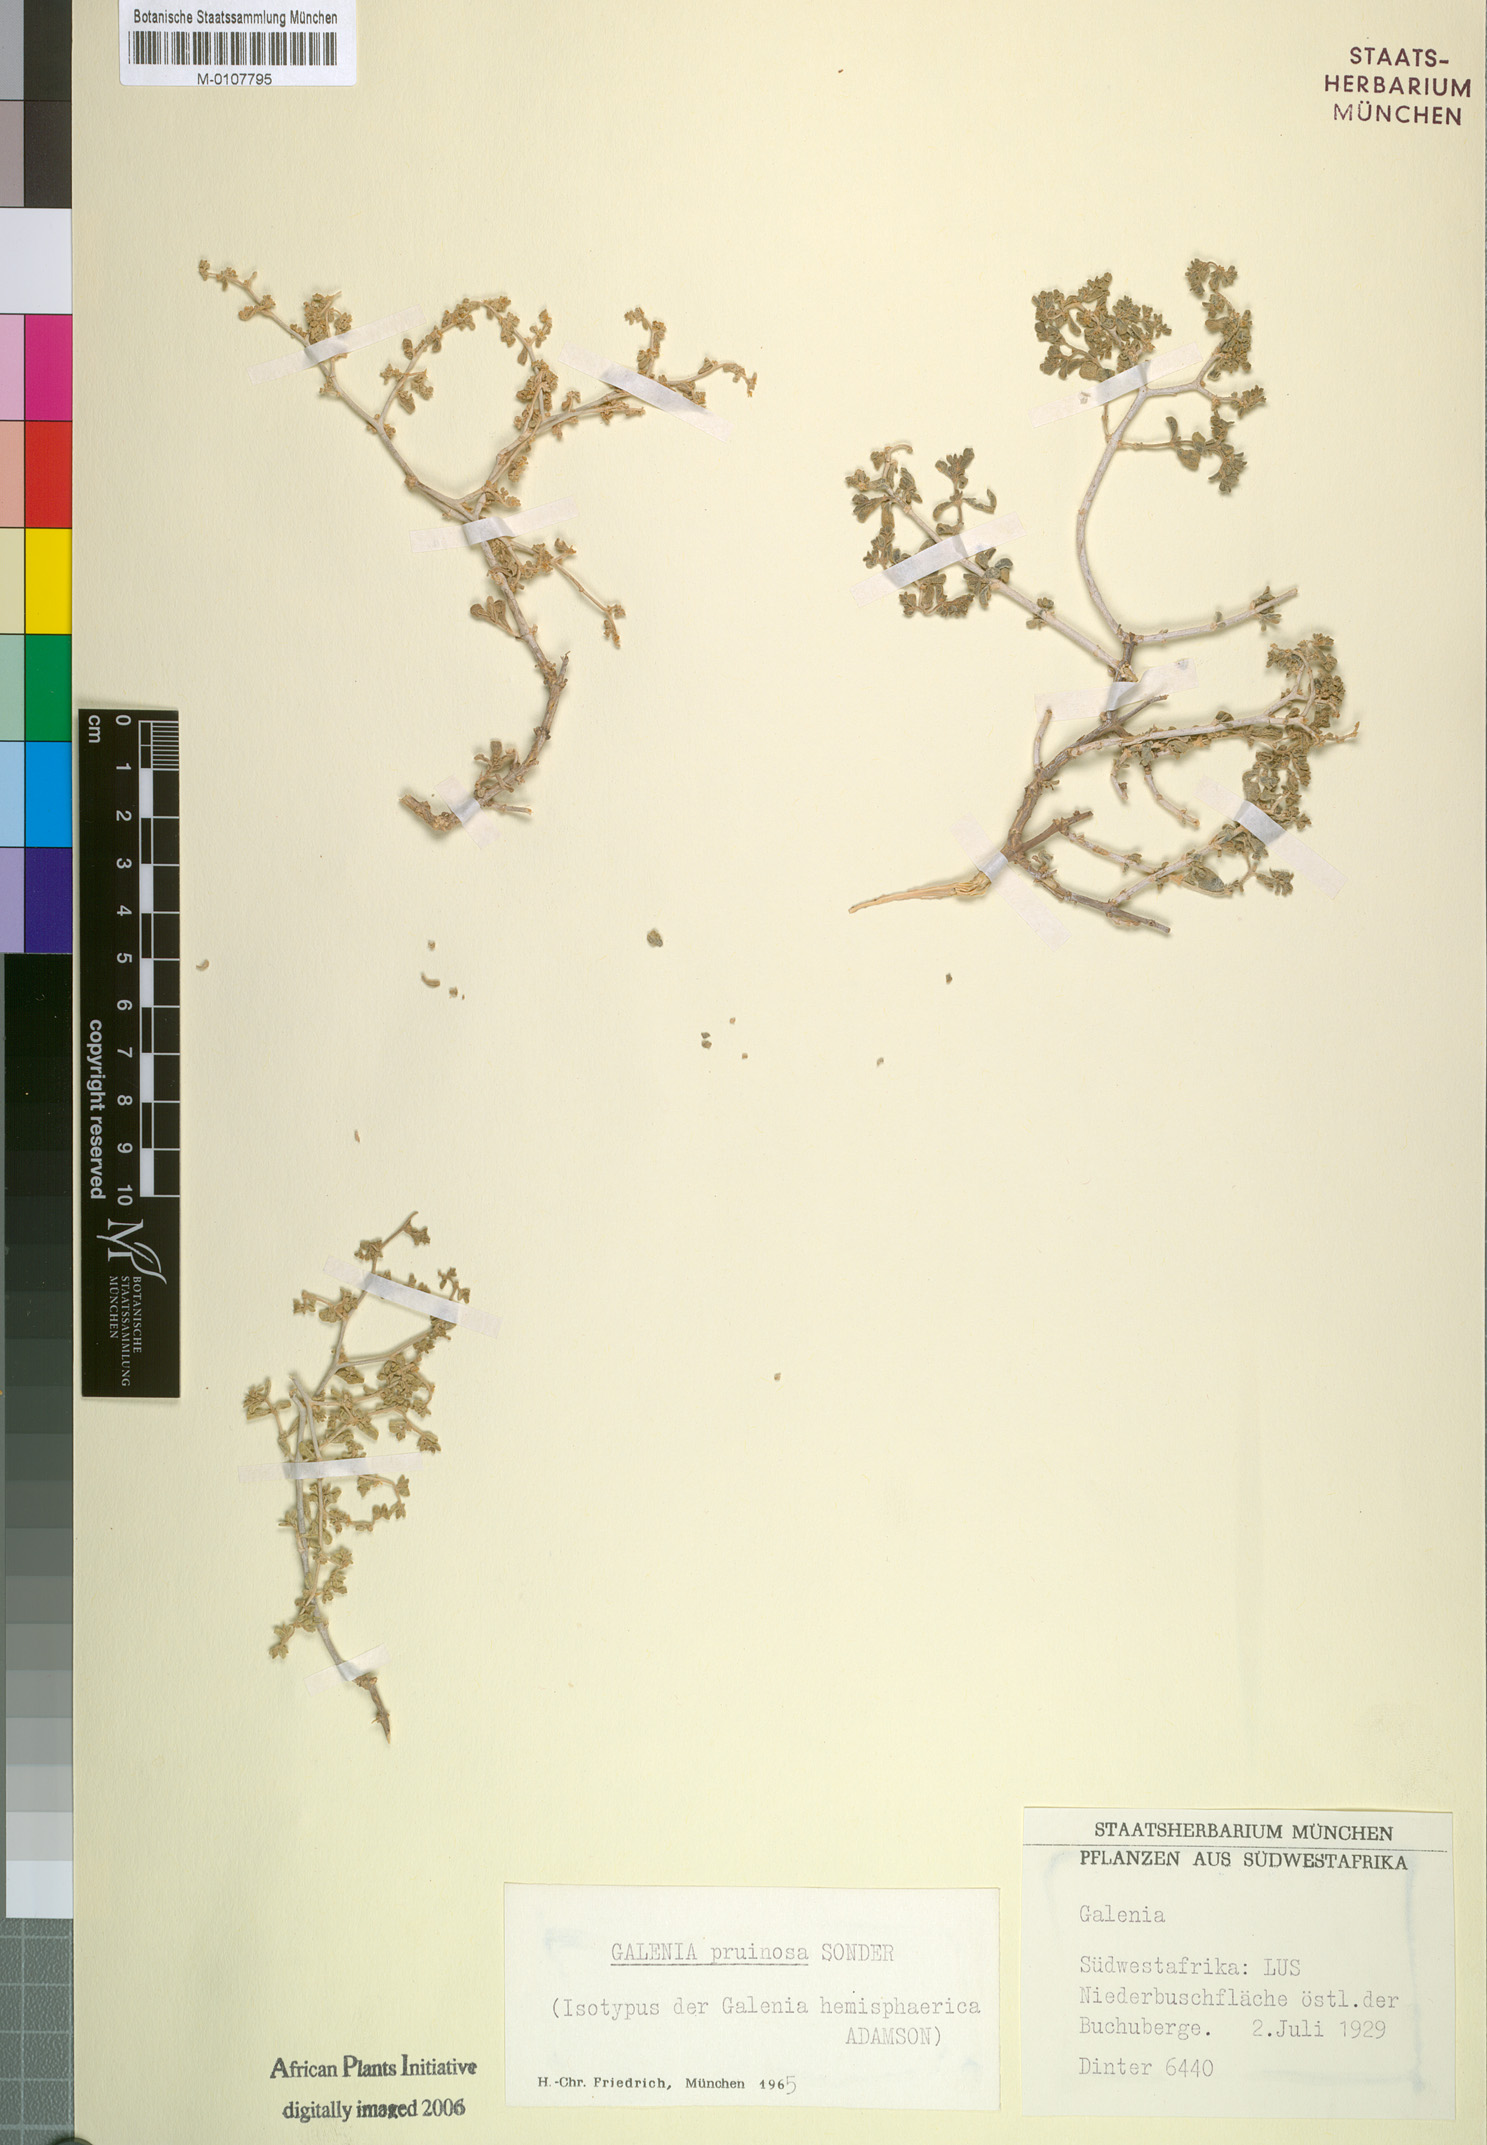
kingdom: Plantae
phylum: Tracheophyta
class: Magnoliopsida
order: Caryophyllales
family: Aizoaceae
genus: Aizoon
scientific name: Aizoon pruinosum
